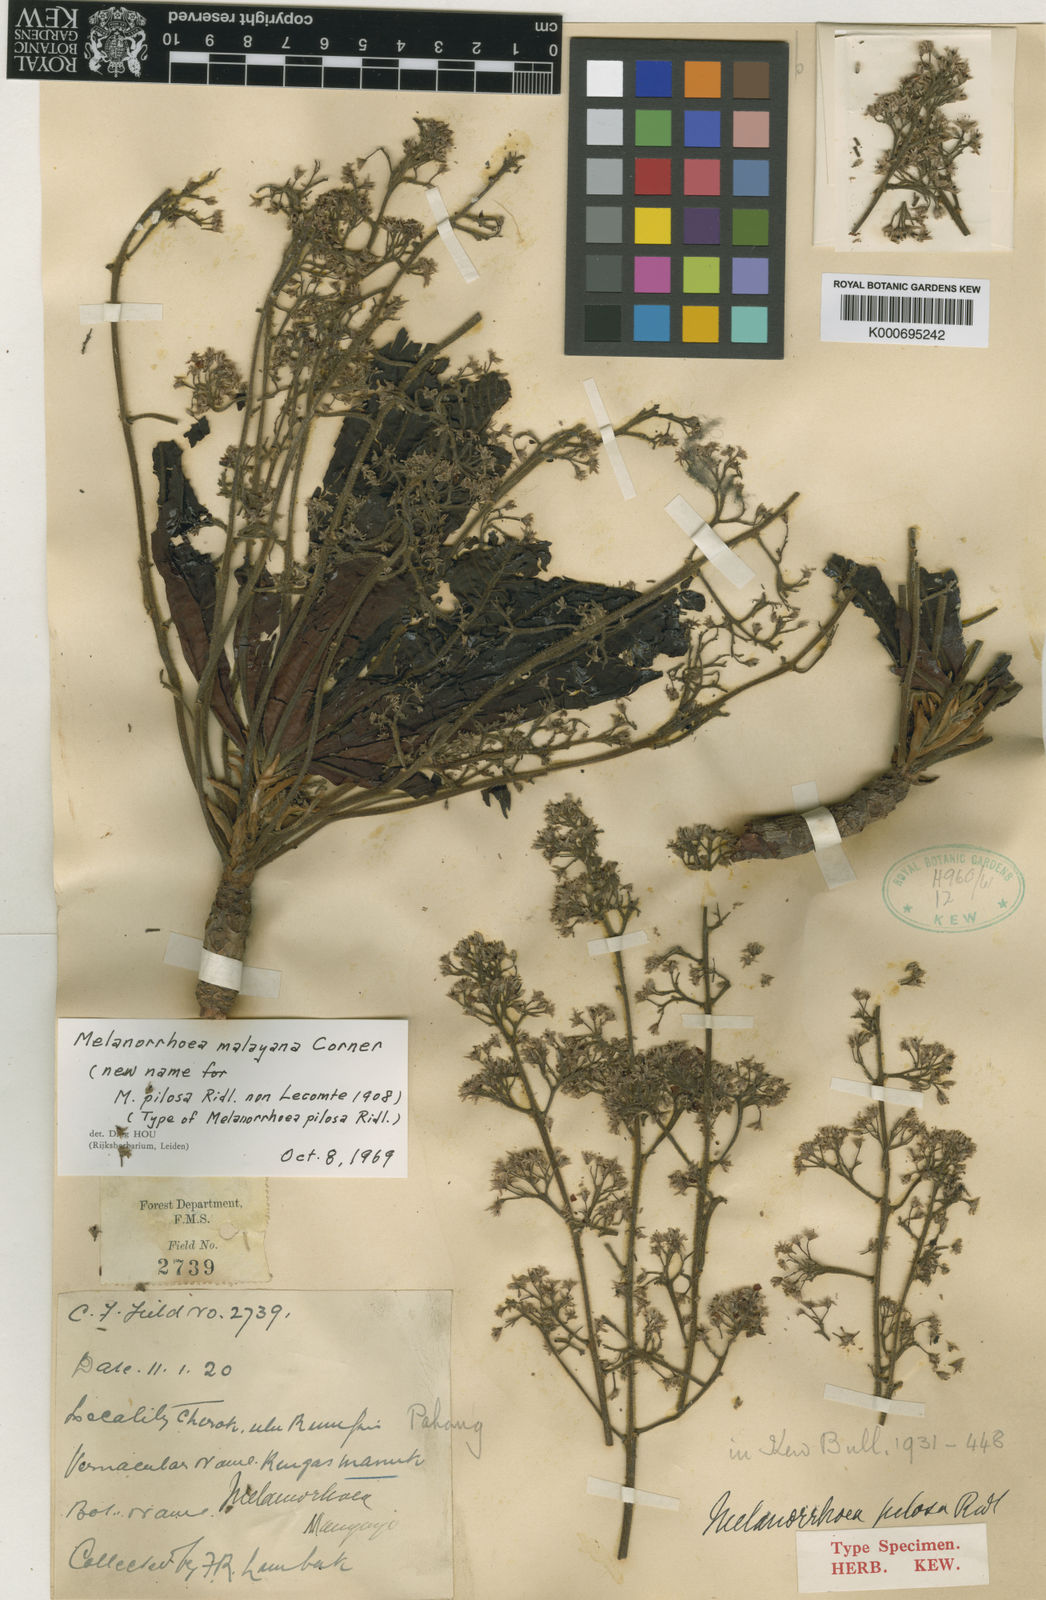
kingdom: Plantae
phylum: Tracheophyta
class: Magnoliopsida
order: Sapindales
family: Anacardiaceae
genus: Gluta
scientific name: Gluta torquata
